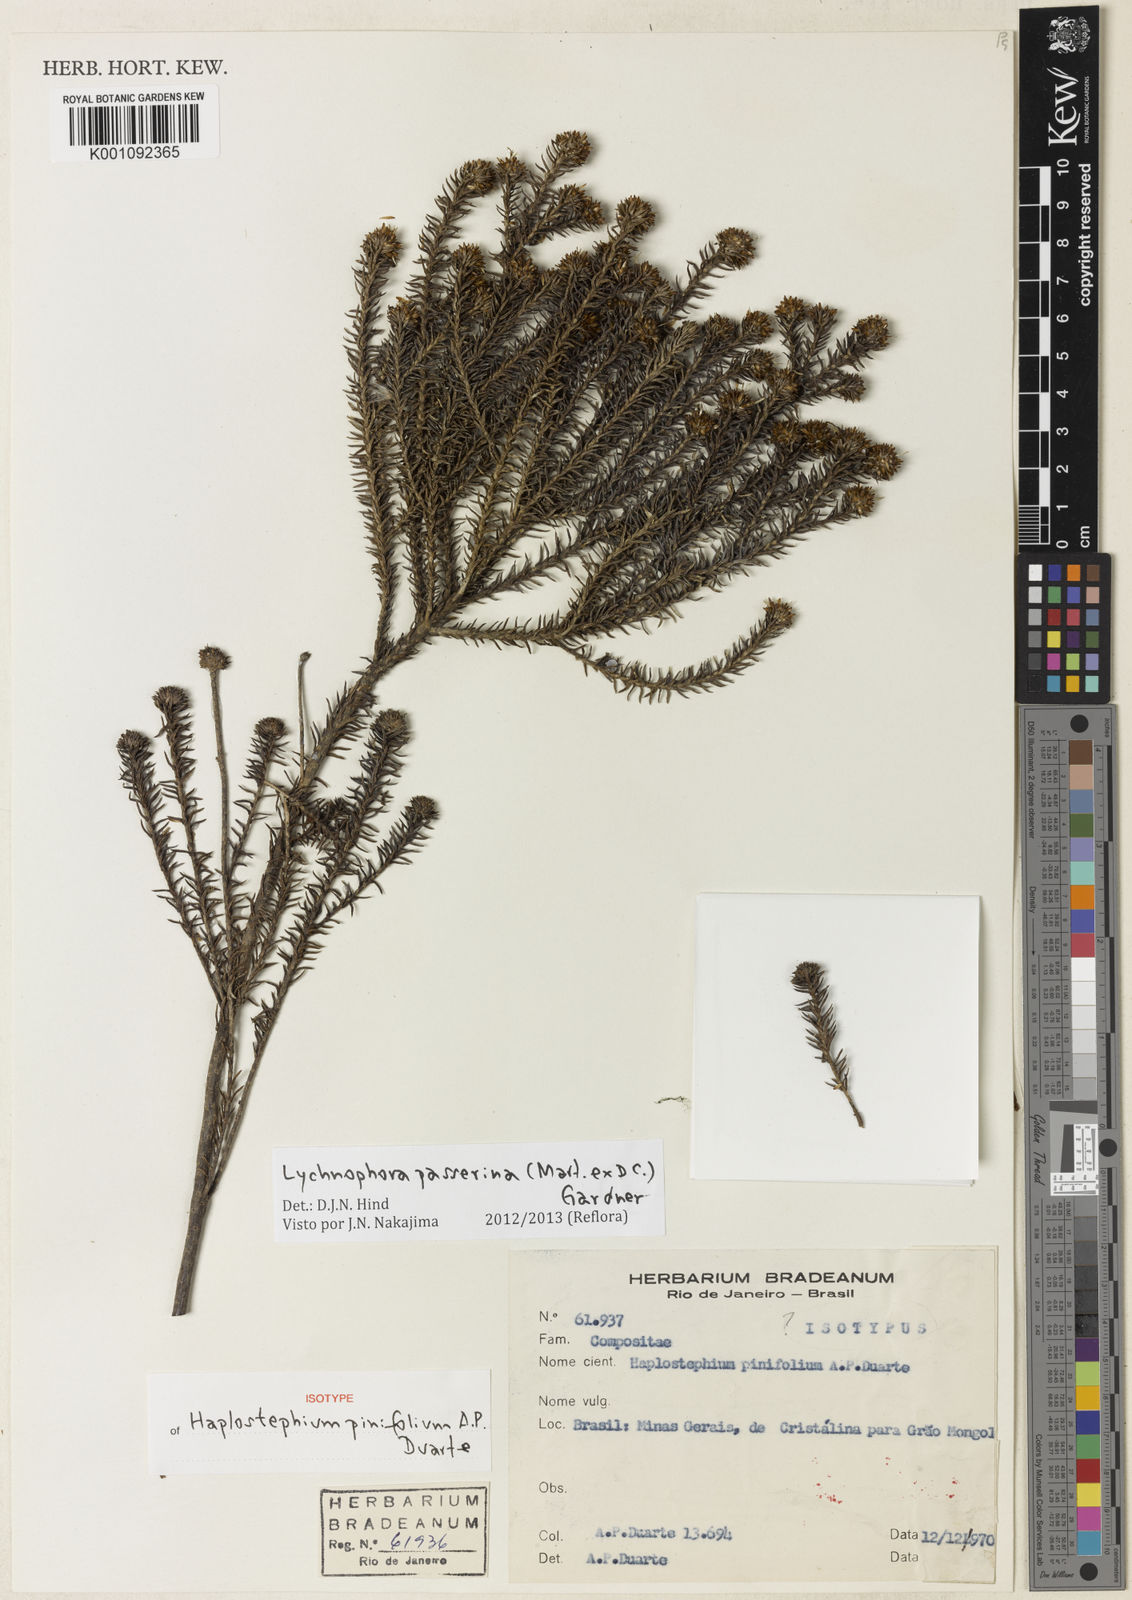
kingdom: Plantae
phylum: Tracheophyta
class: Magnoliopsida
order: Asterales
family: Asteraceae
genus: Lychnophora
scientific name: Lychnophora passerina
